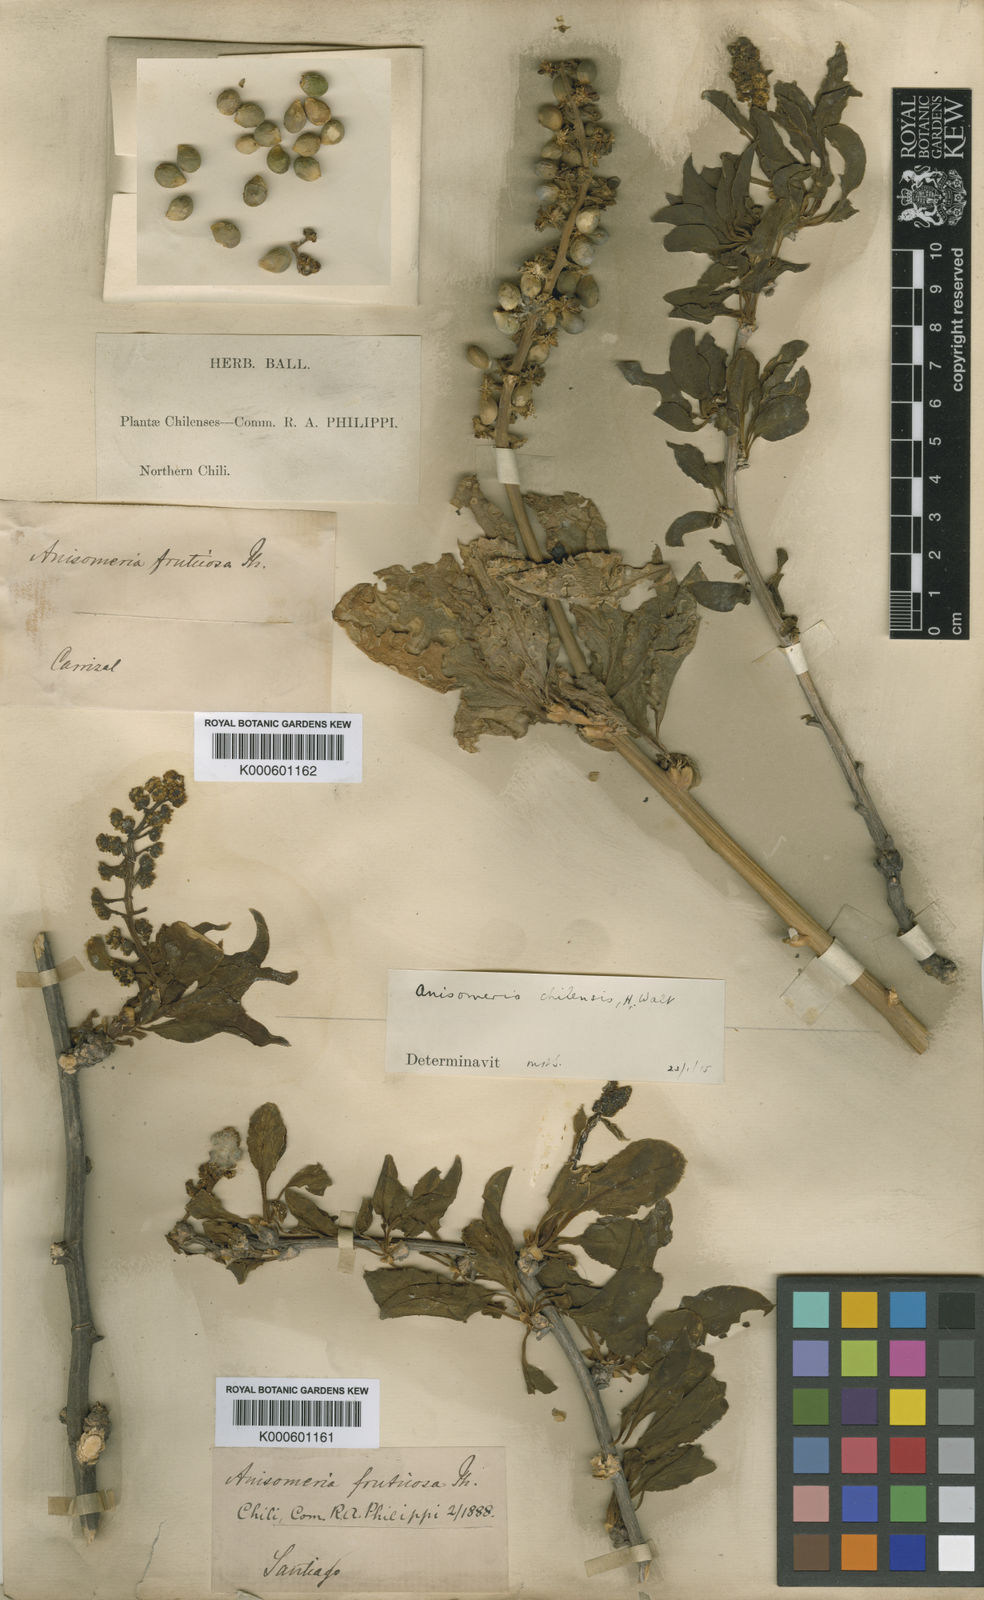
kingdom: Plantae
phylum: Tracheophyta
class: Magnoliopsida
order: Caryophyllales
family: Phytolaccaceae
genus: Anisomeria
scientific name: Anisomeria littoralis
